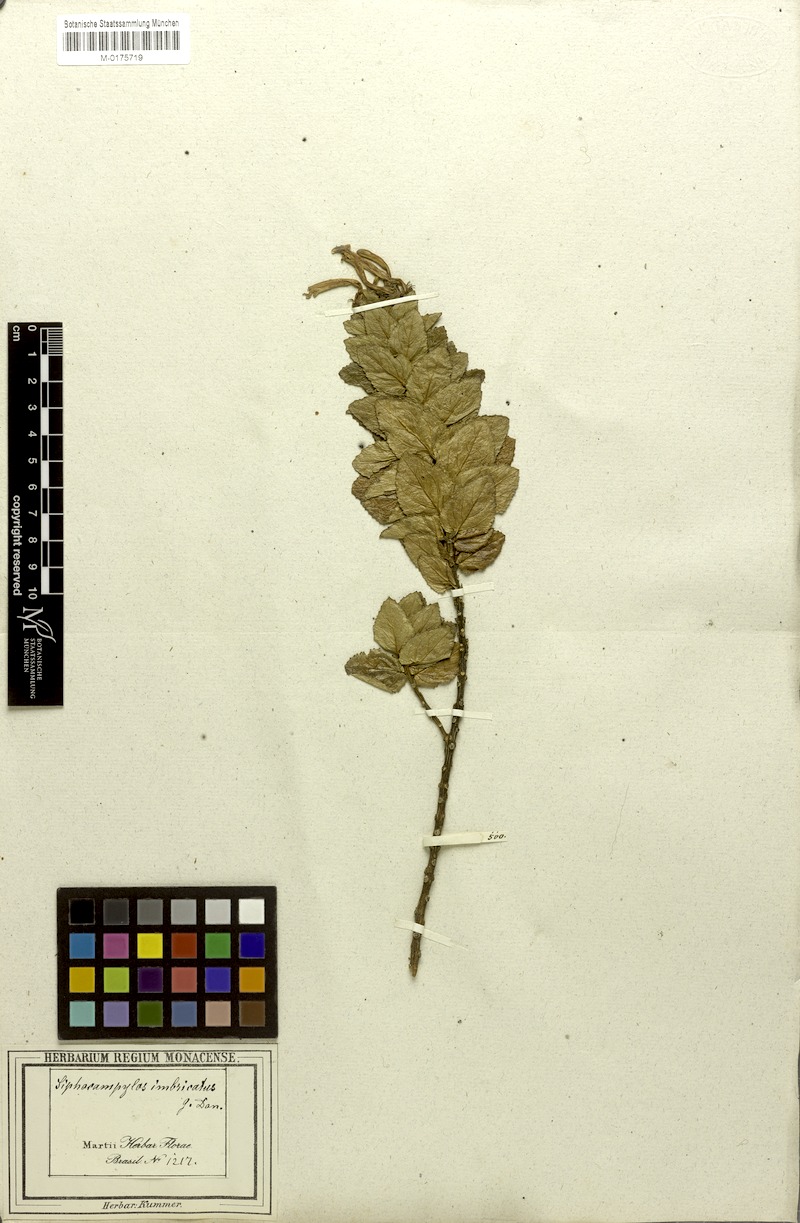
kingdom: Plantae
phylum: Tracheophyta
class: Magnoliopsida
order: Asterales
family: Campanulaceae
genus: Siphocampylus
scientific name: Siphocampylus westinianus
